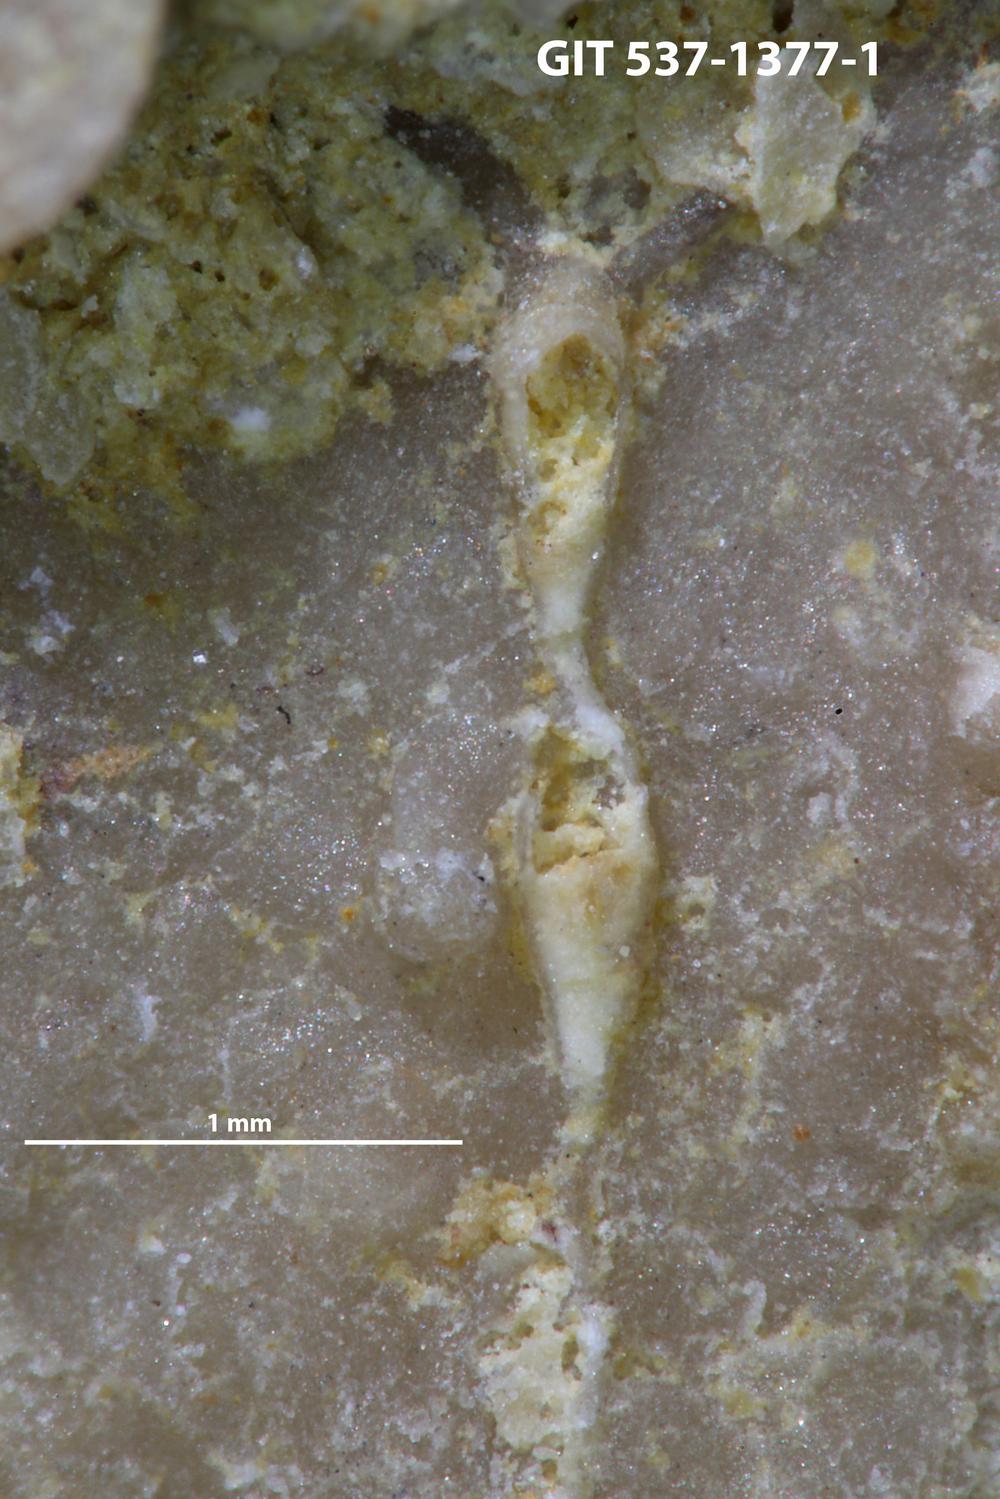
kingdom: Animalia
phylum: Bryozoa
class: Stenolaemata
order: Cyclostomatida
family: Corynotrypidae
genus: Corynotrypa
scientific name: Corynotrypa
